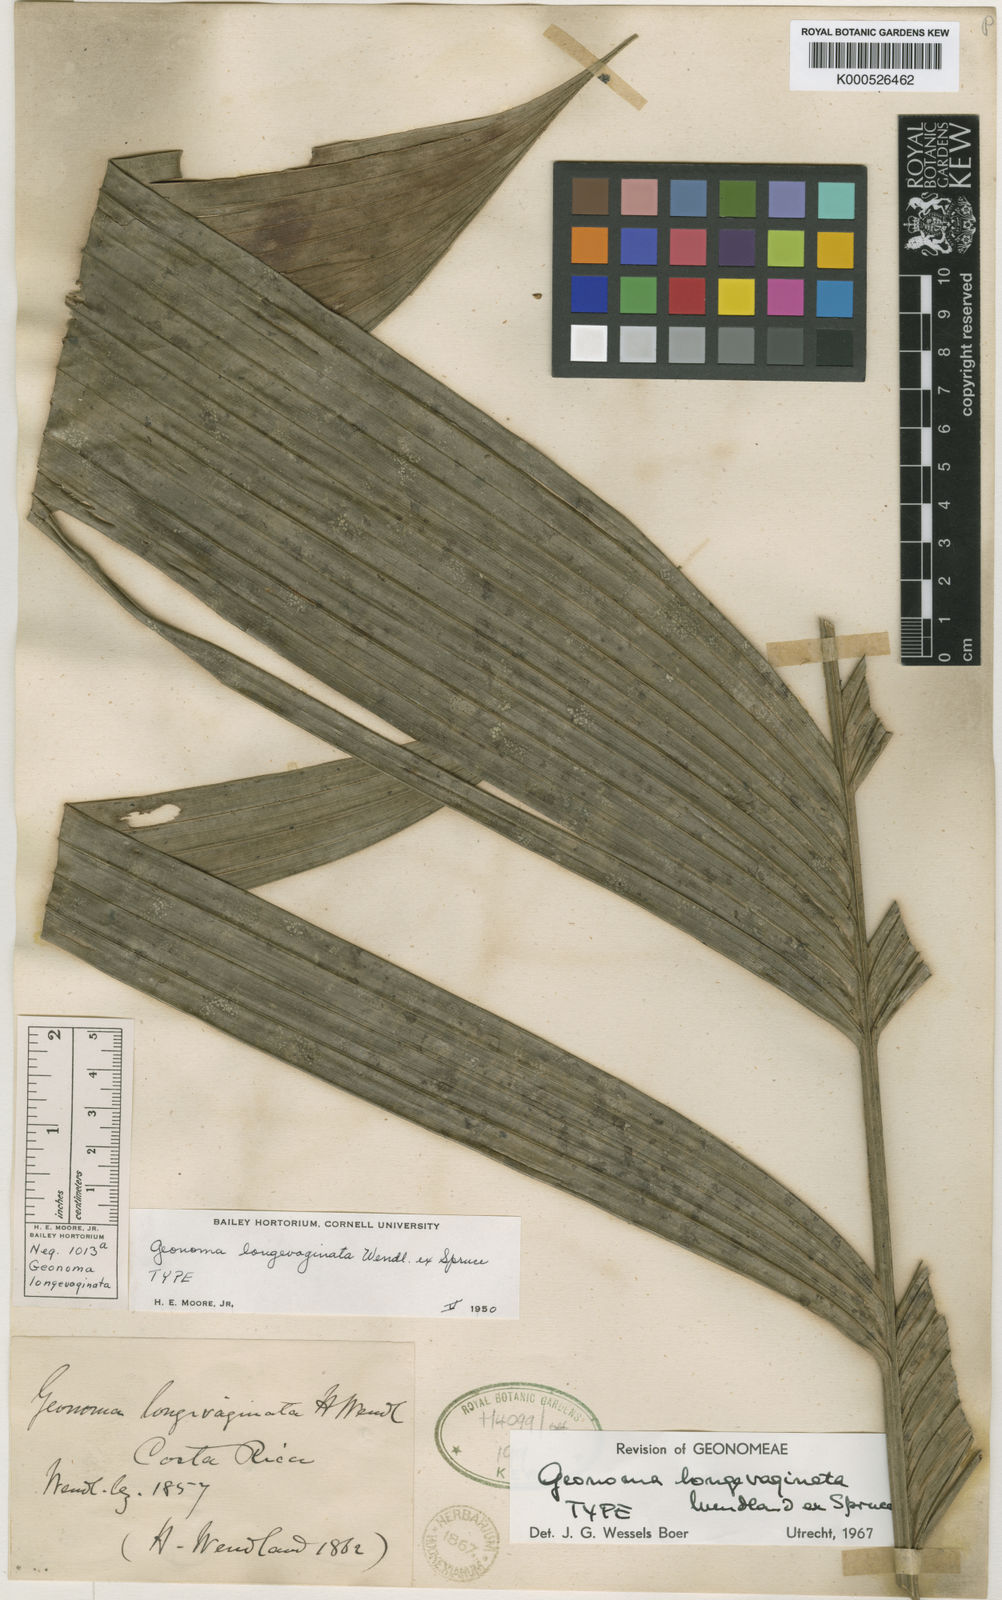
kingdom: Plantae
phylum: Tracheophyta
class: Liliopsida
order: Arecales
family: Arecaceae
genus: Geonoma
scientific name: Geonoma longivaginata
